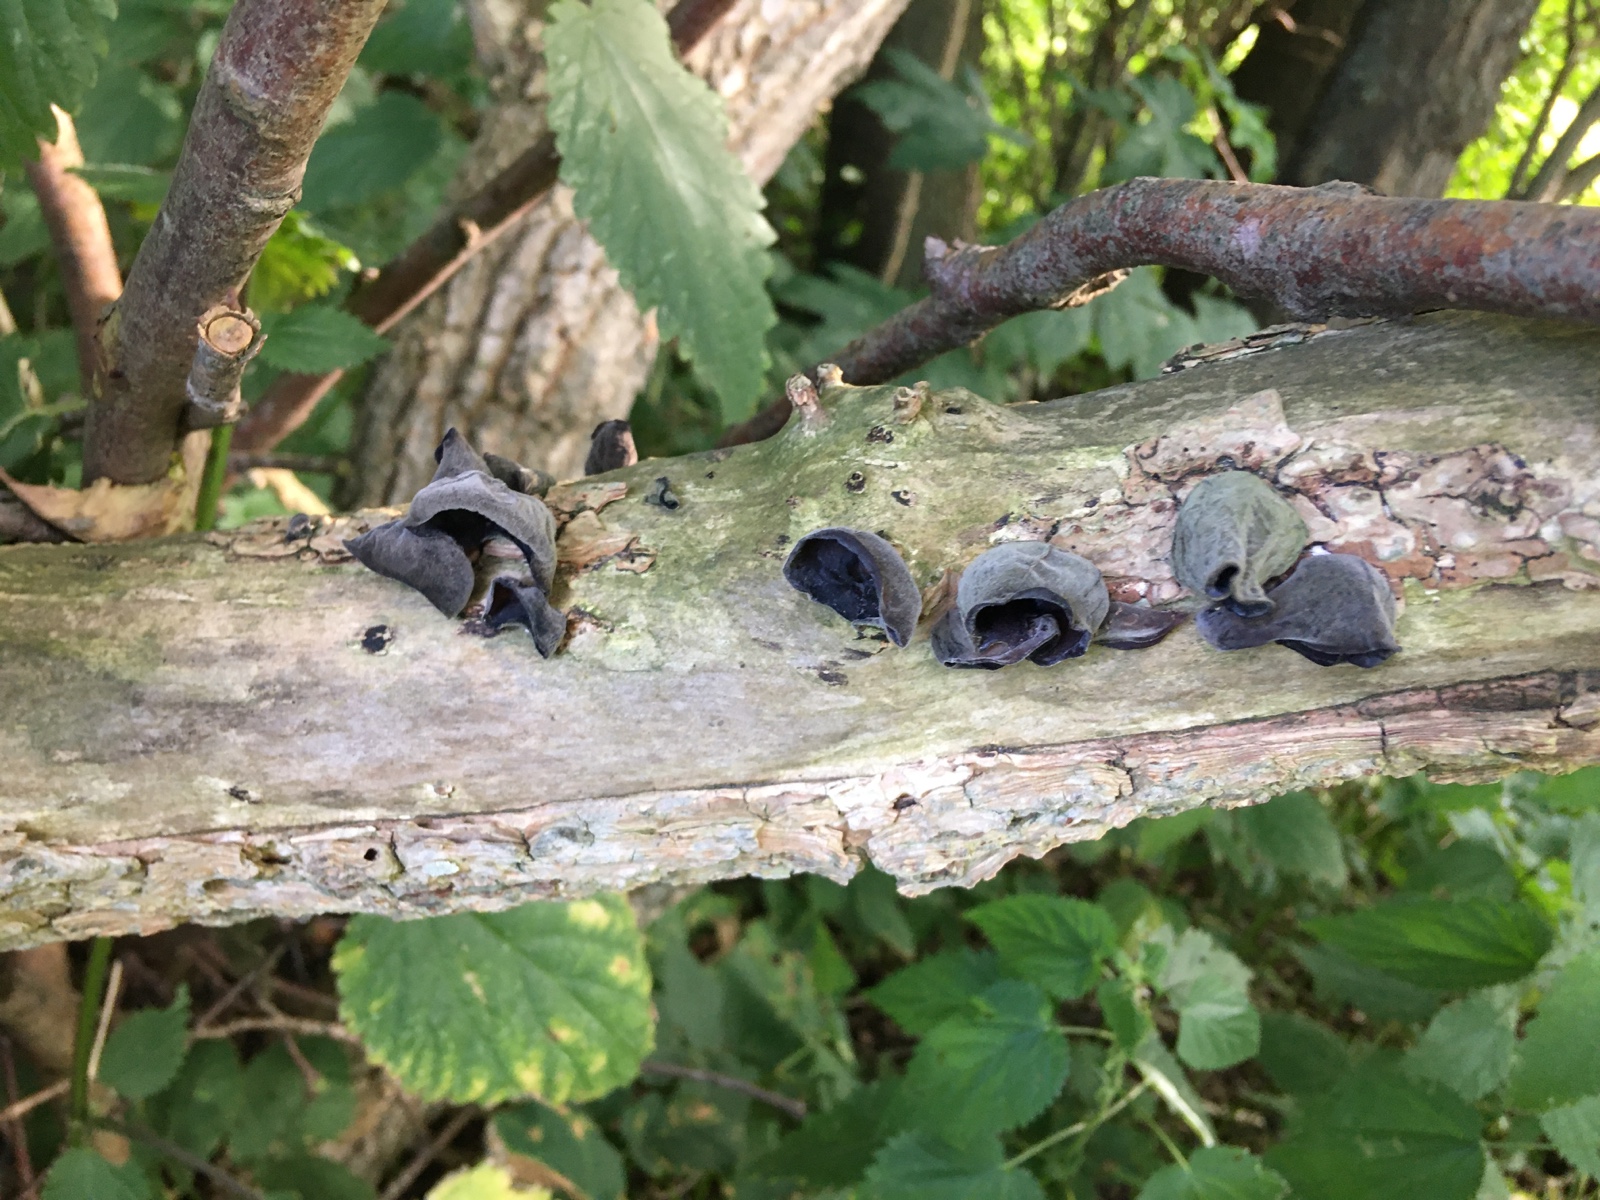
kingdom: Fungi
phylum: Basidiomycota
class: Agaricomycetes
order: Auriculariales
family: Auriculariaceae
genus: Auricularia
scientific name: Auricularia auricula-judae
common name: almindelig judasøre
